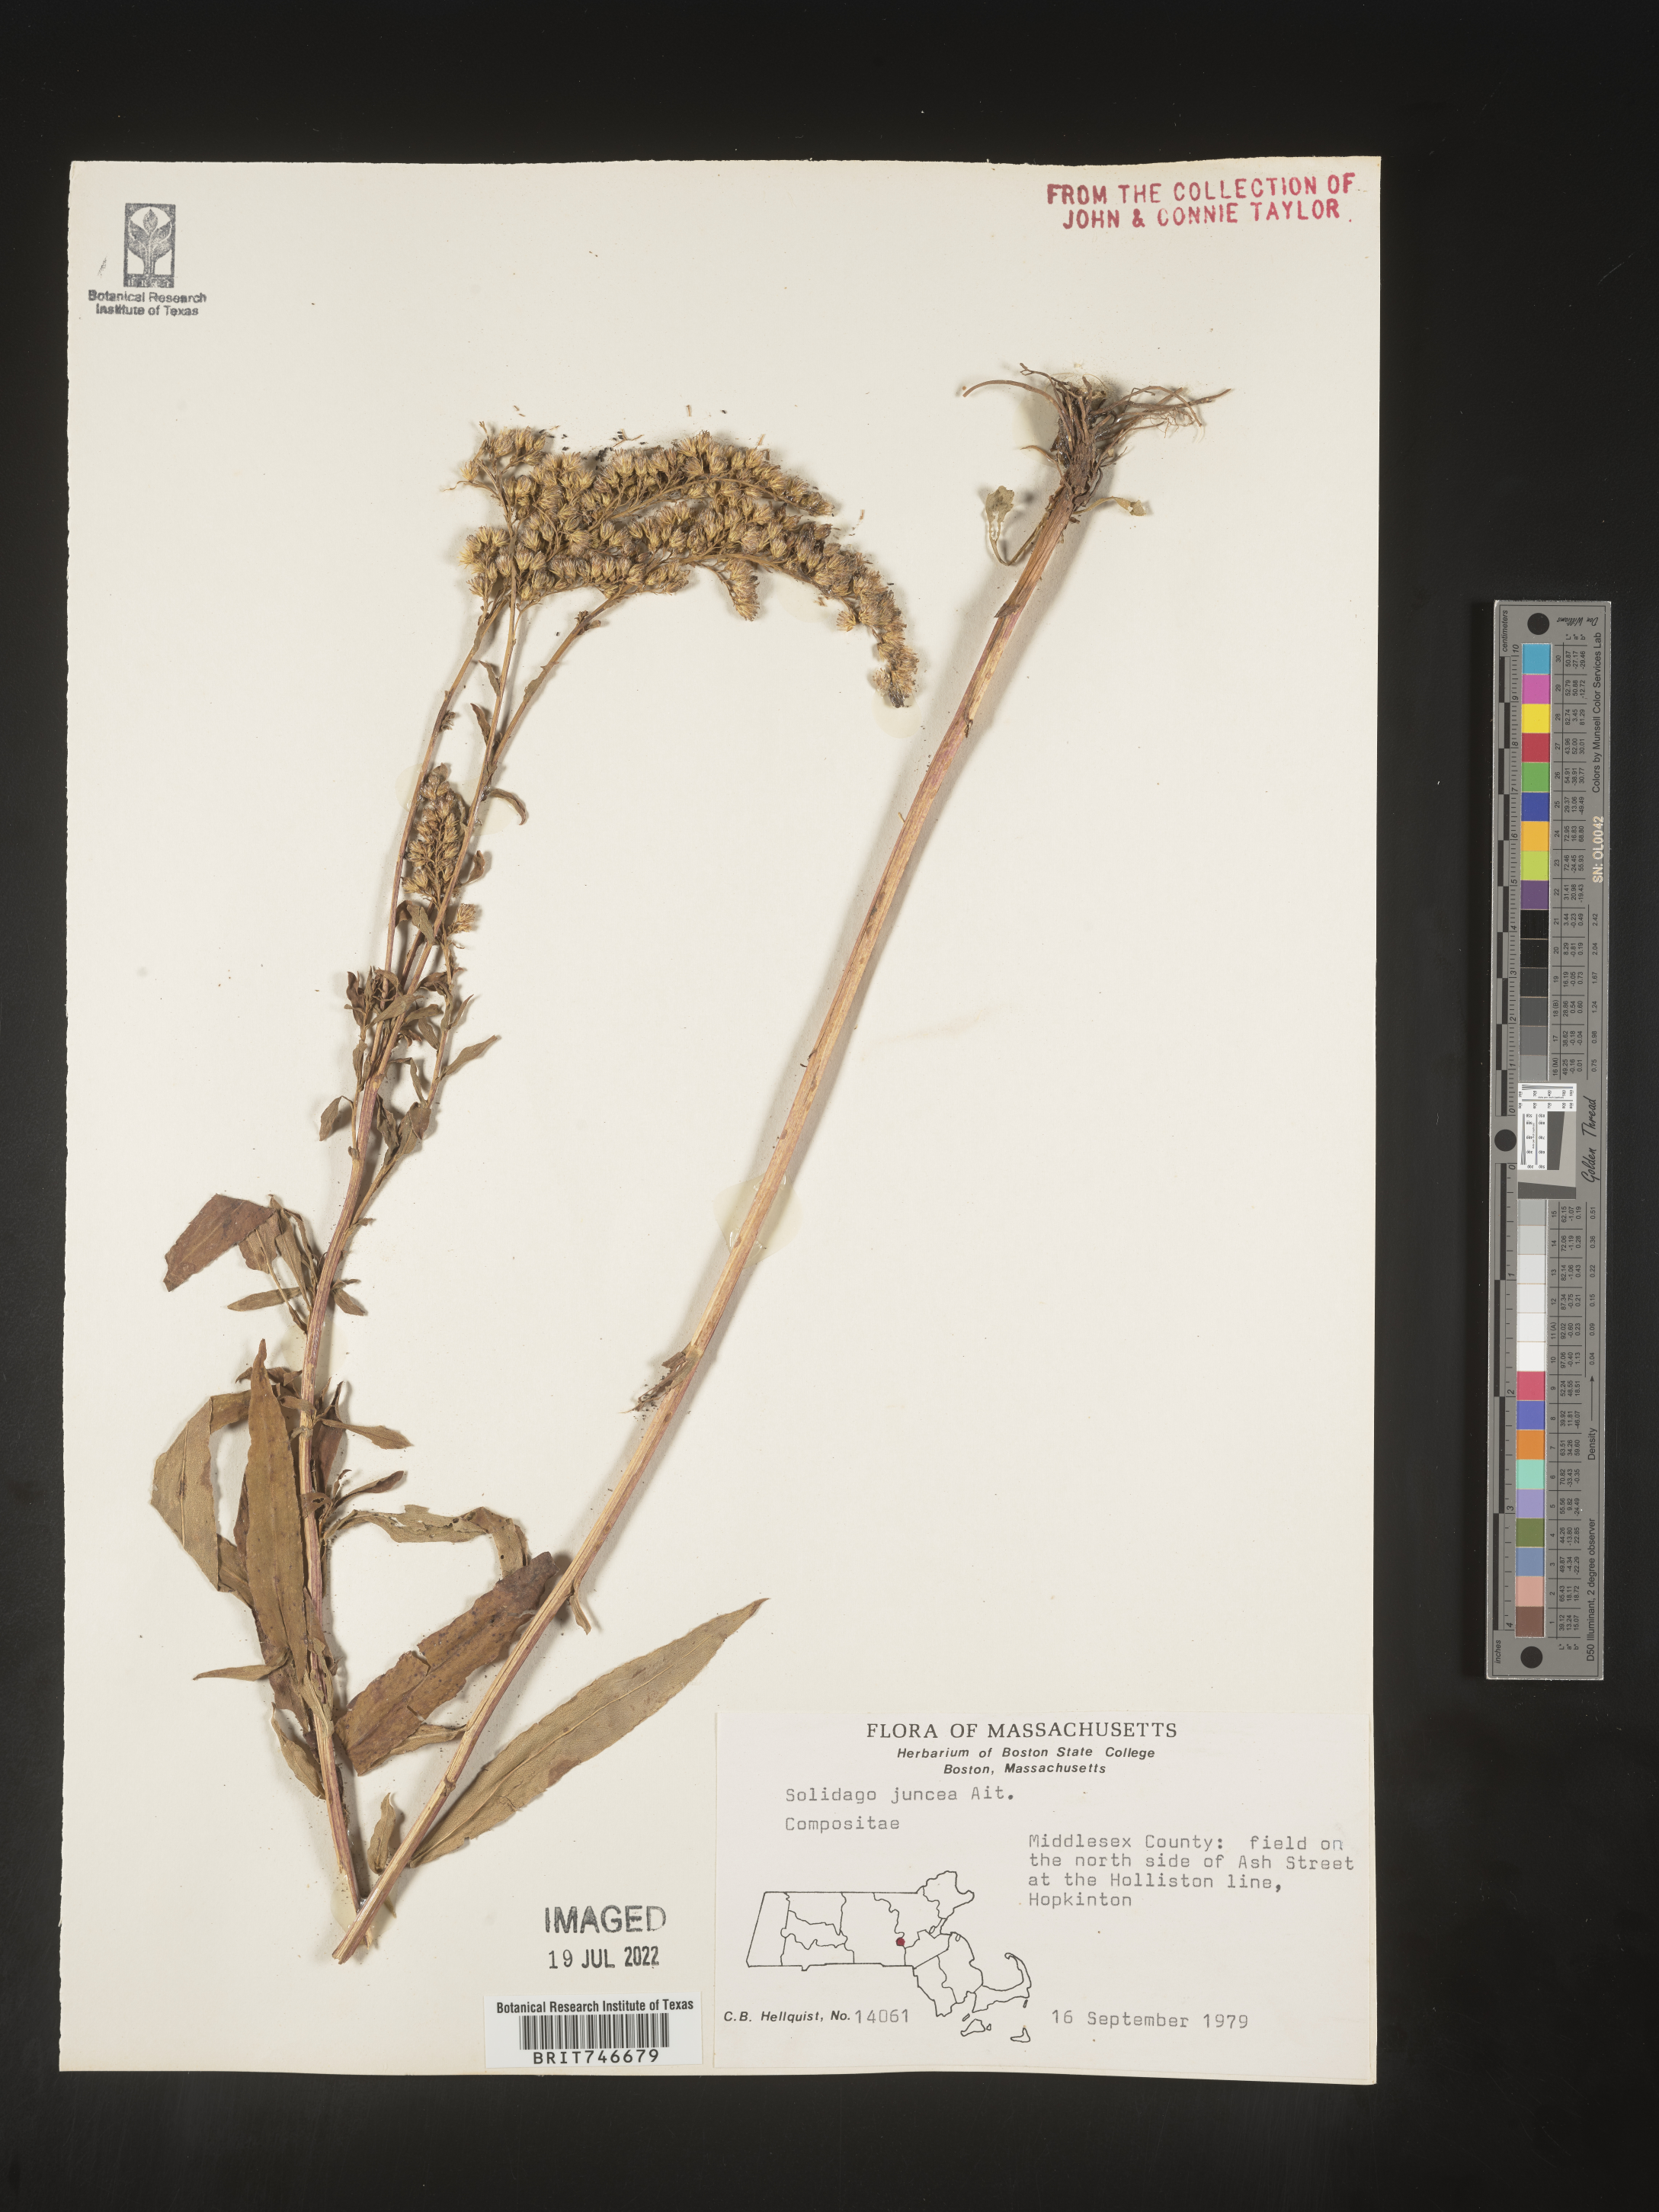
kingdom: Plantae
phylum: Tracheophyta
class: Magnoliopsida
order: Asterales
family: Asteraceae
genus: Solidago
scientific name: Solidago juncea
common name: Early goldenrod
